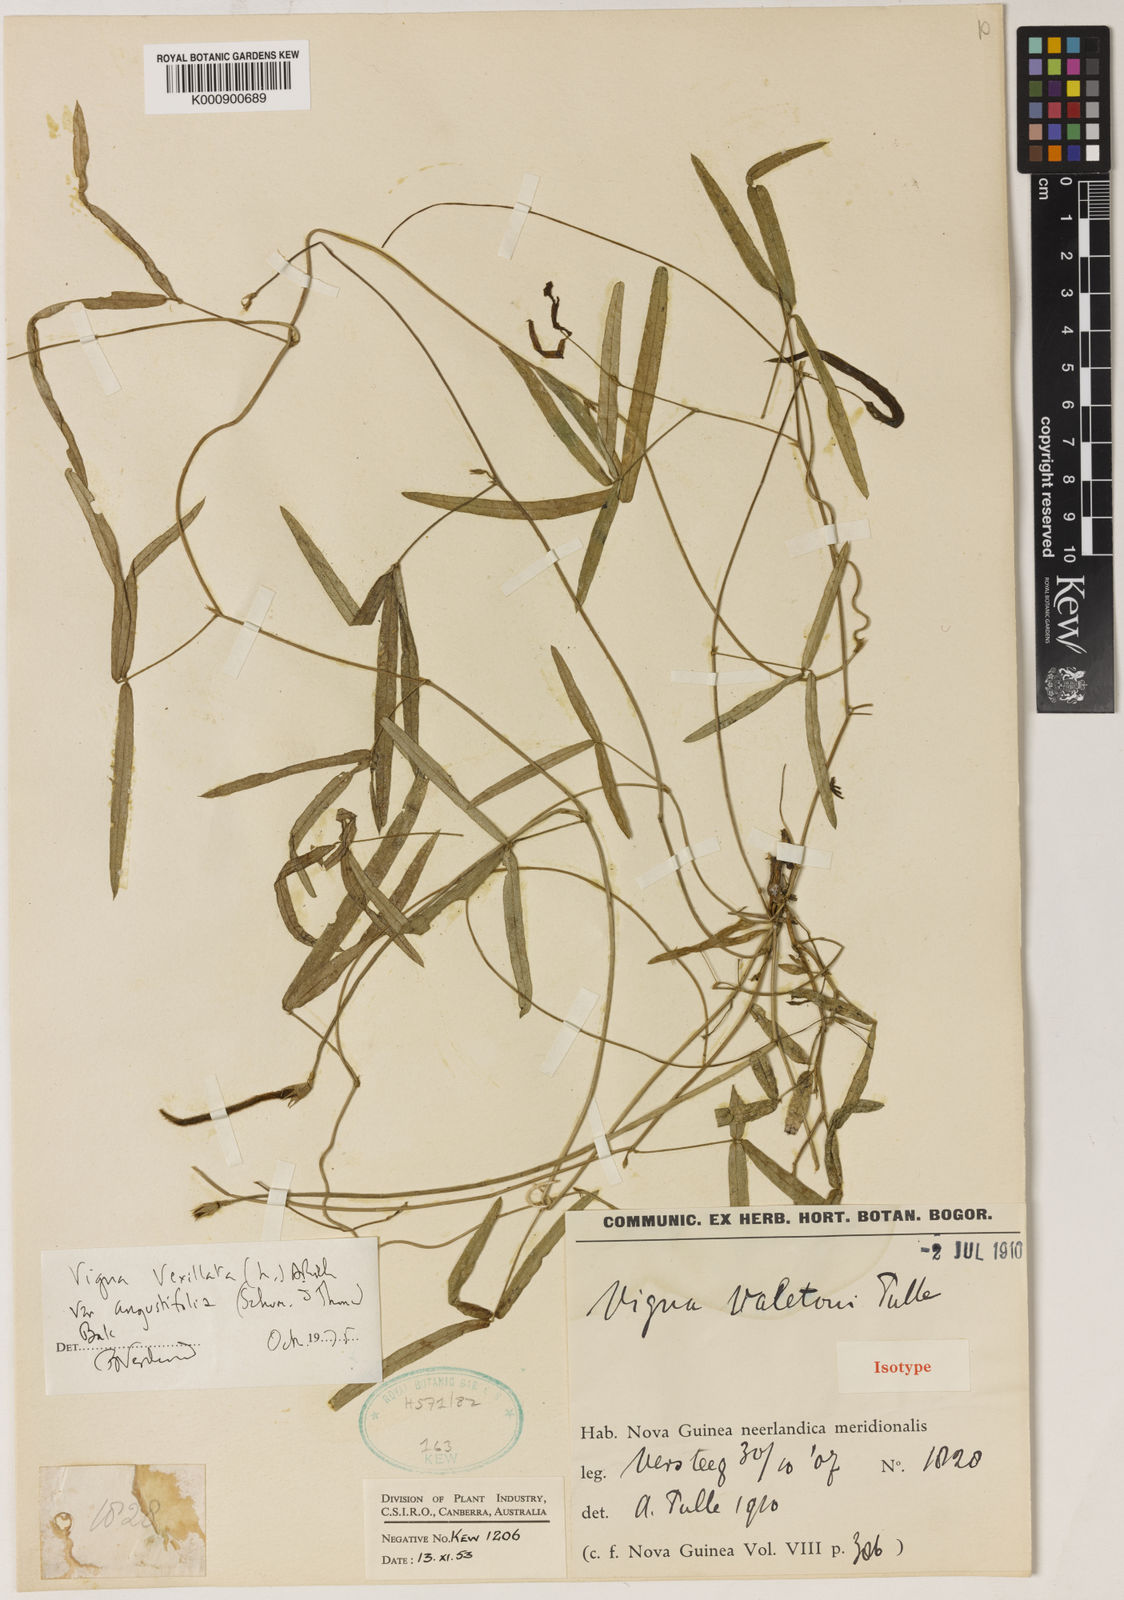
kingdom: Plantae
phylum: Tracheophyta
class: Magnoliopsida
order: Fabales
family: Fabaceae
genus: Vigna
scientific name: Vigna vexillata
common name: Zombi pea
